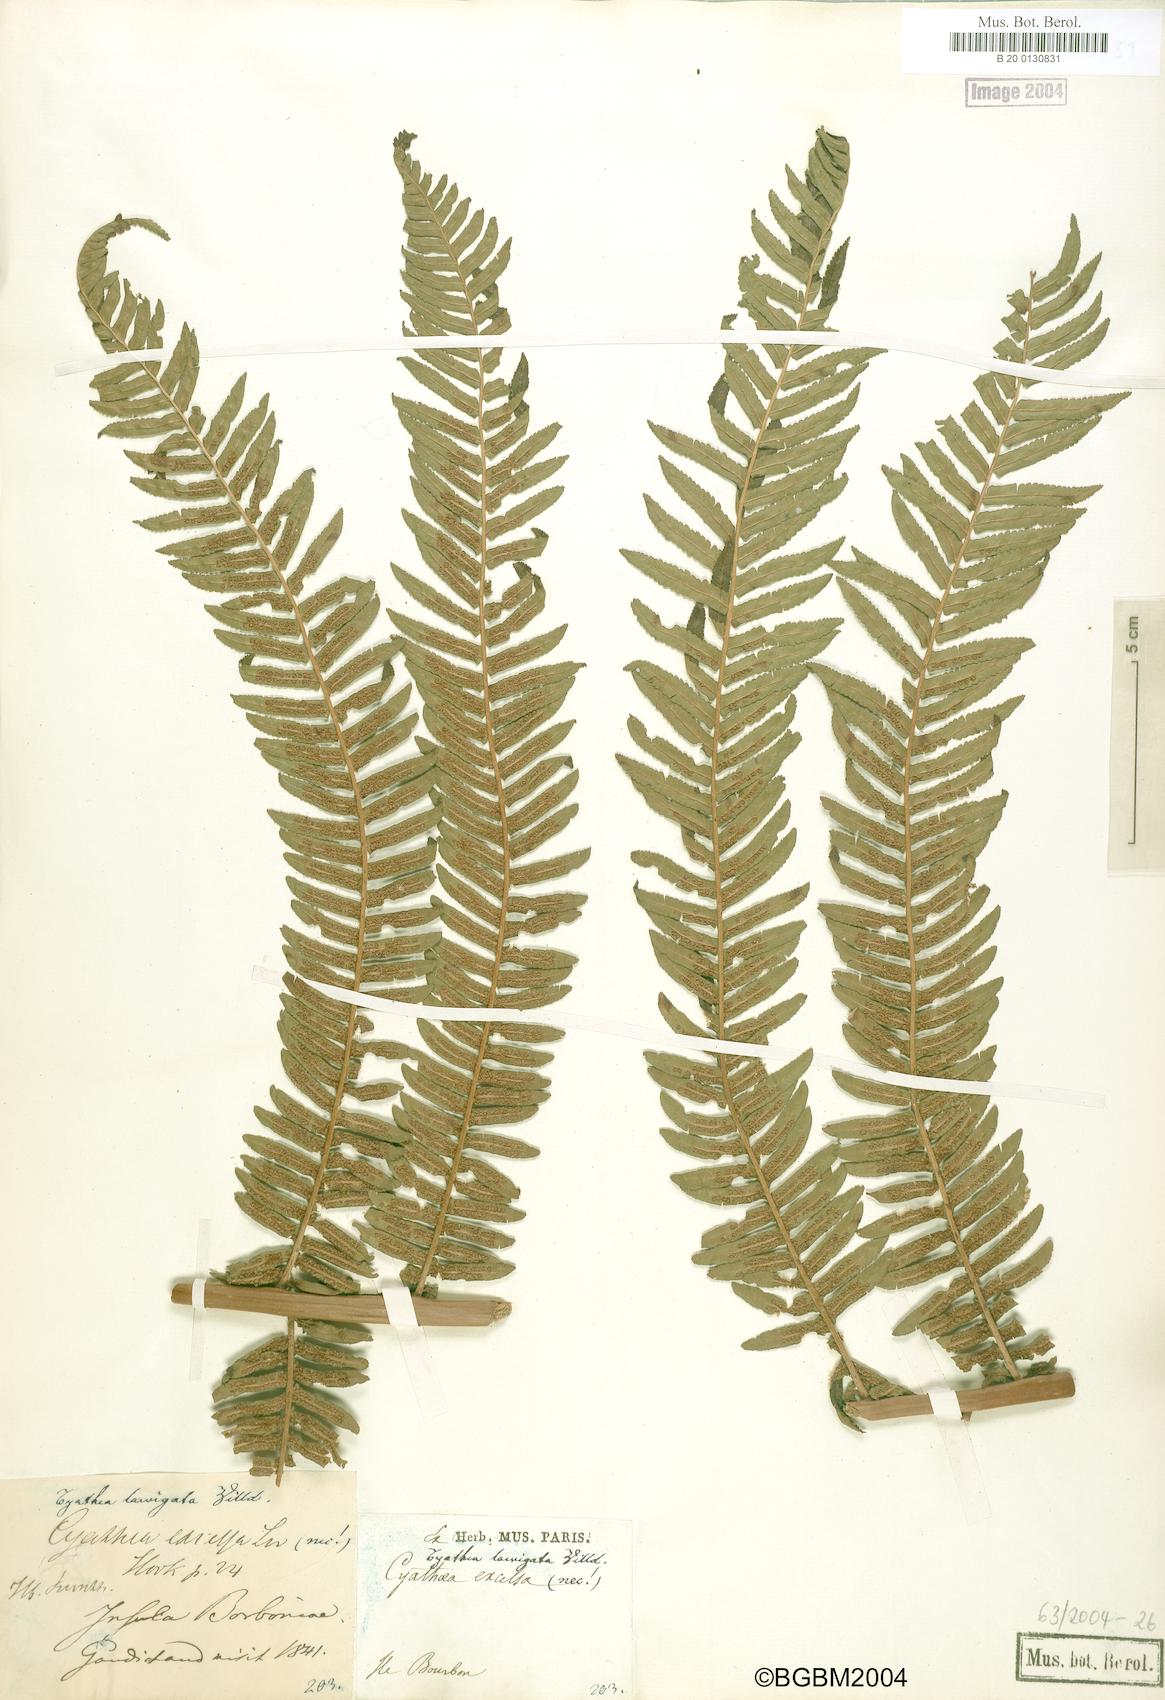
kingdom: Plantae
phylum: Tracheophyta
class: Polypodiopsida
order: Cyatheales
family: Cyatheaceae
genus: Alsophila
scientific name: Alsophila celsa
